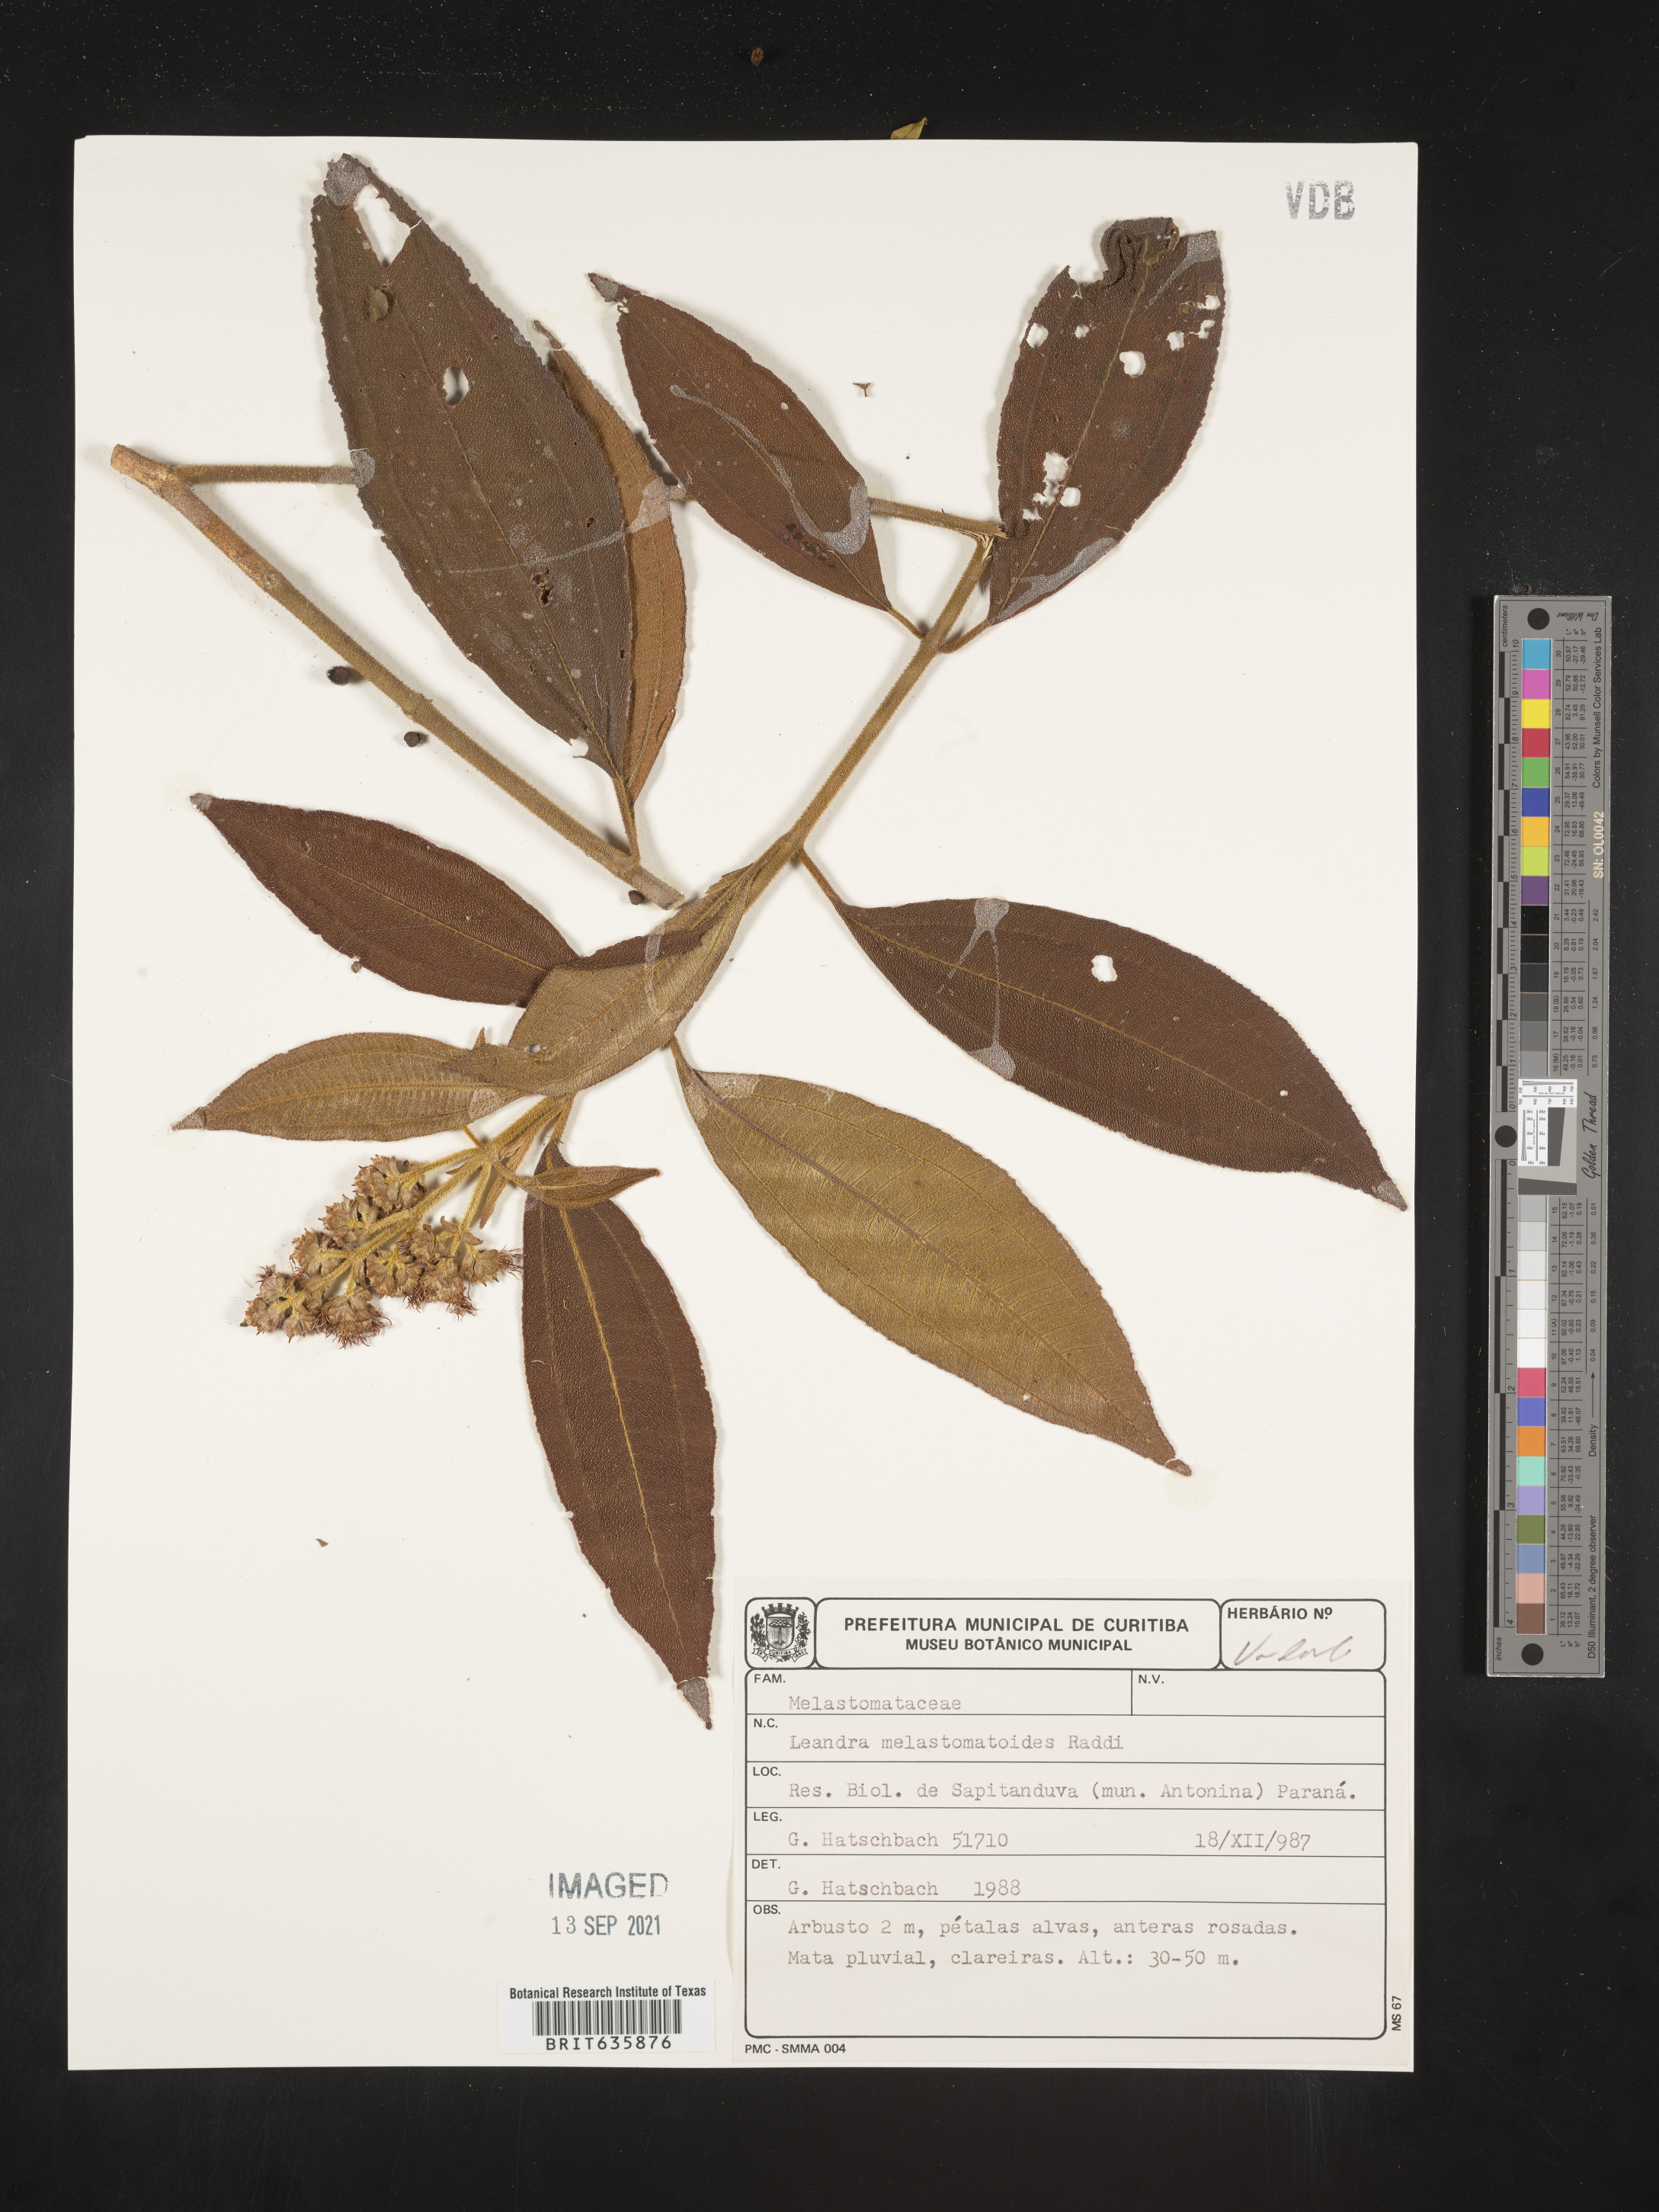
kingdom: Plantae
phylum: Tracheophyta
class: Magnoliopsida
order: Myrtales
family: Melastomataceae
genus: Miconia
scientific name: Miconia
